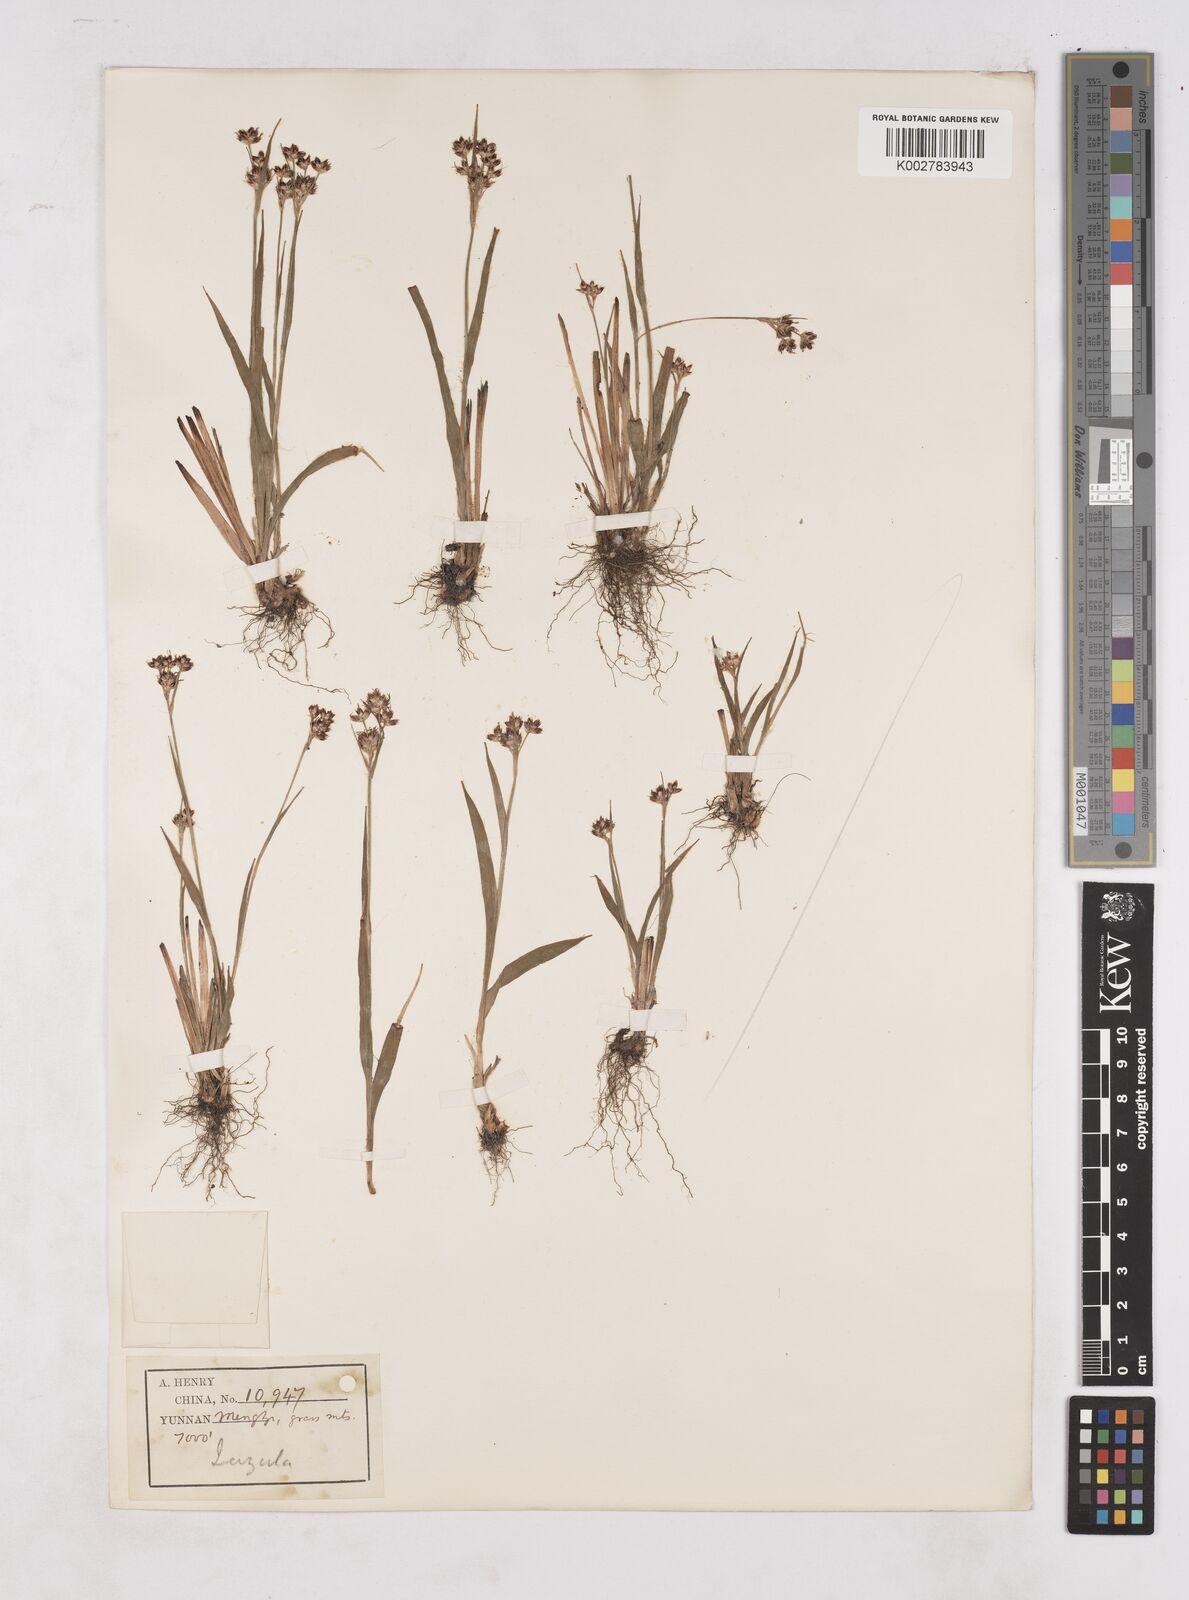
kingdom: Plantae
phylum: Tracheophyta
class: Liliopsida
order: Poales
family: Juncaceae
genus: Luzula
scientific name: Luzula campestris
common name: Field wood-rush
